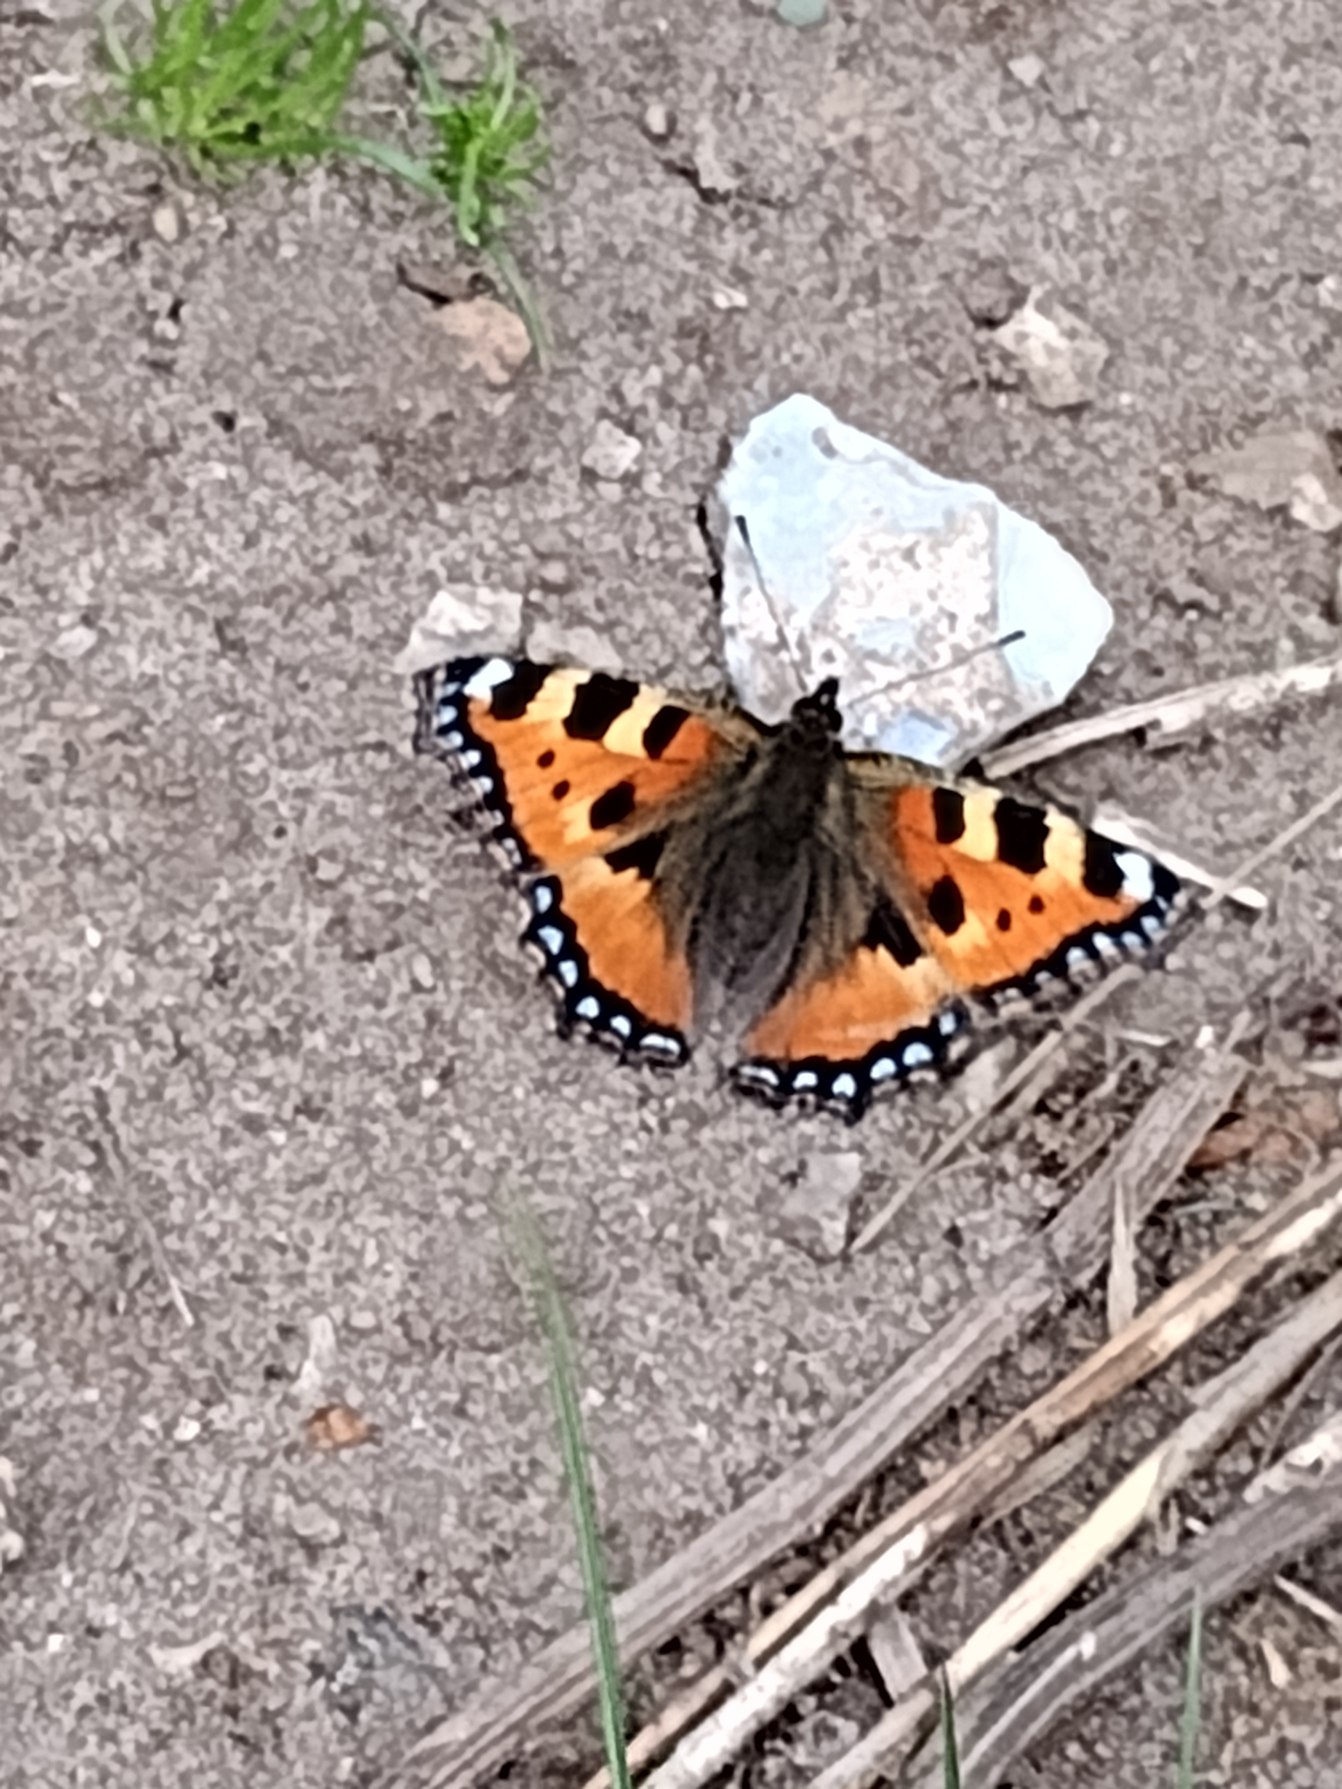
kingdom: Animalia
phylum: Arthropoda
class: Insecta
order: Lepidoptera
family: Nymphalidae
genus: Aglais
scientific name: Aglais urticae
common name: Nældens takvinge
